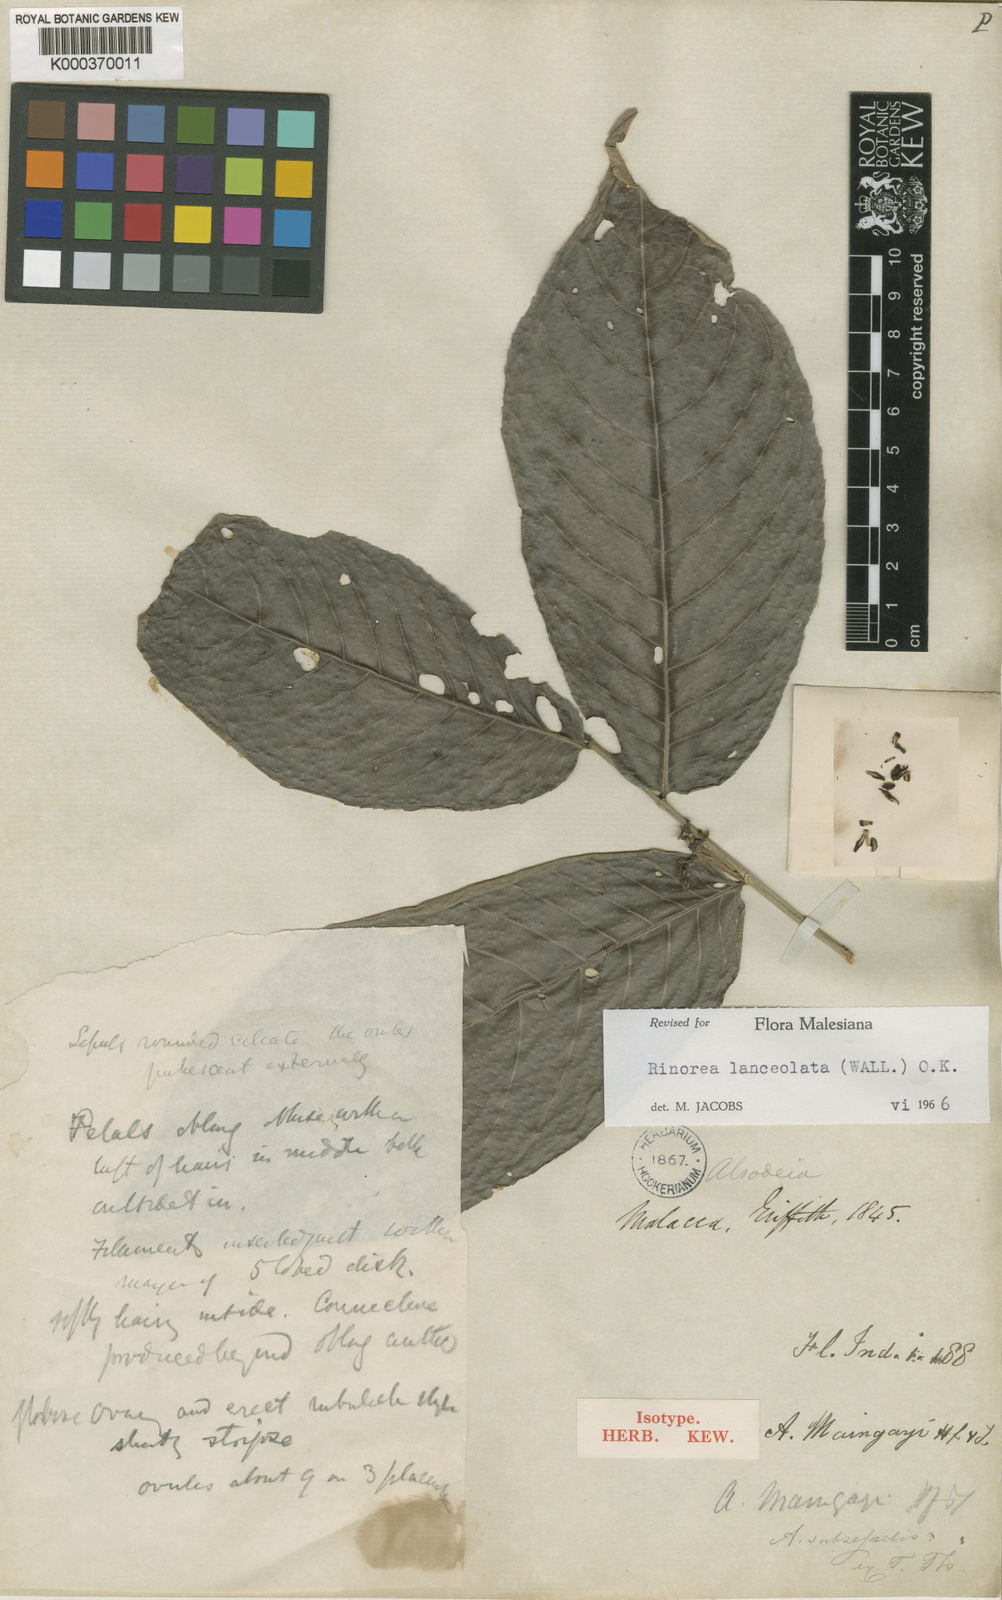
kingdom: Plantae
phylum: Tracheophyta
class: Magnoliopsida
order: Malpighiales
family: Violaceae
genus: Rinorea
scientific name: Rinorea lanceolata
